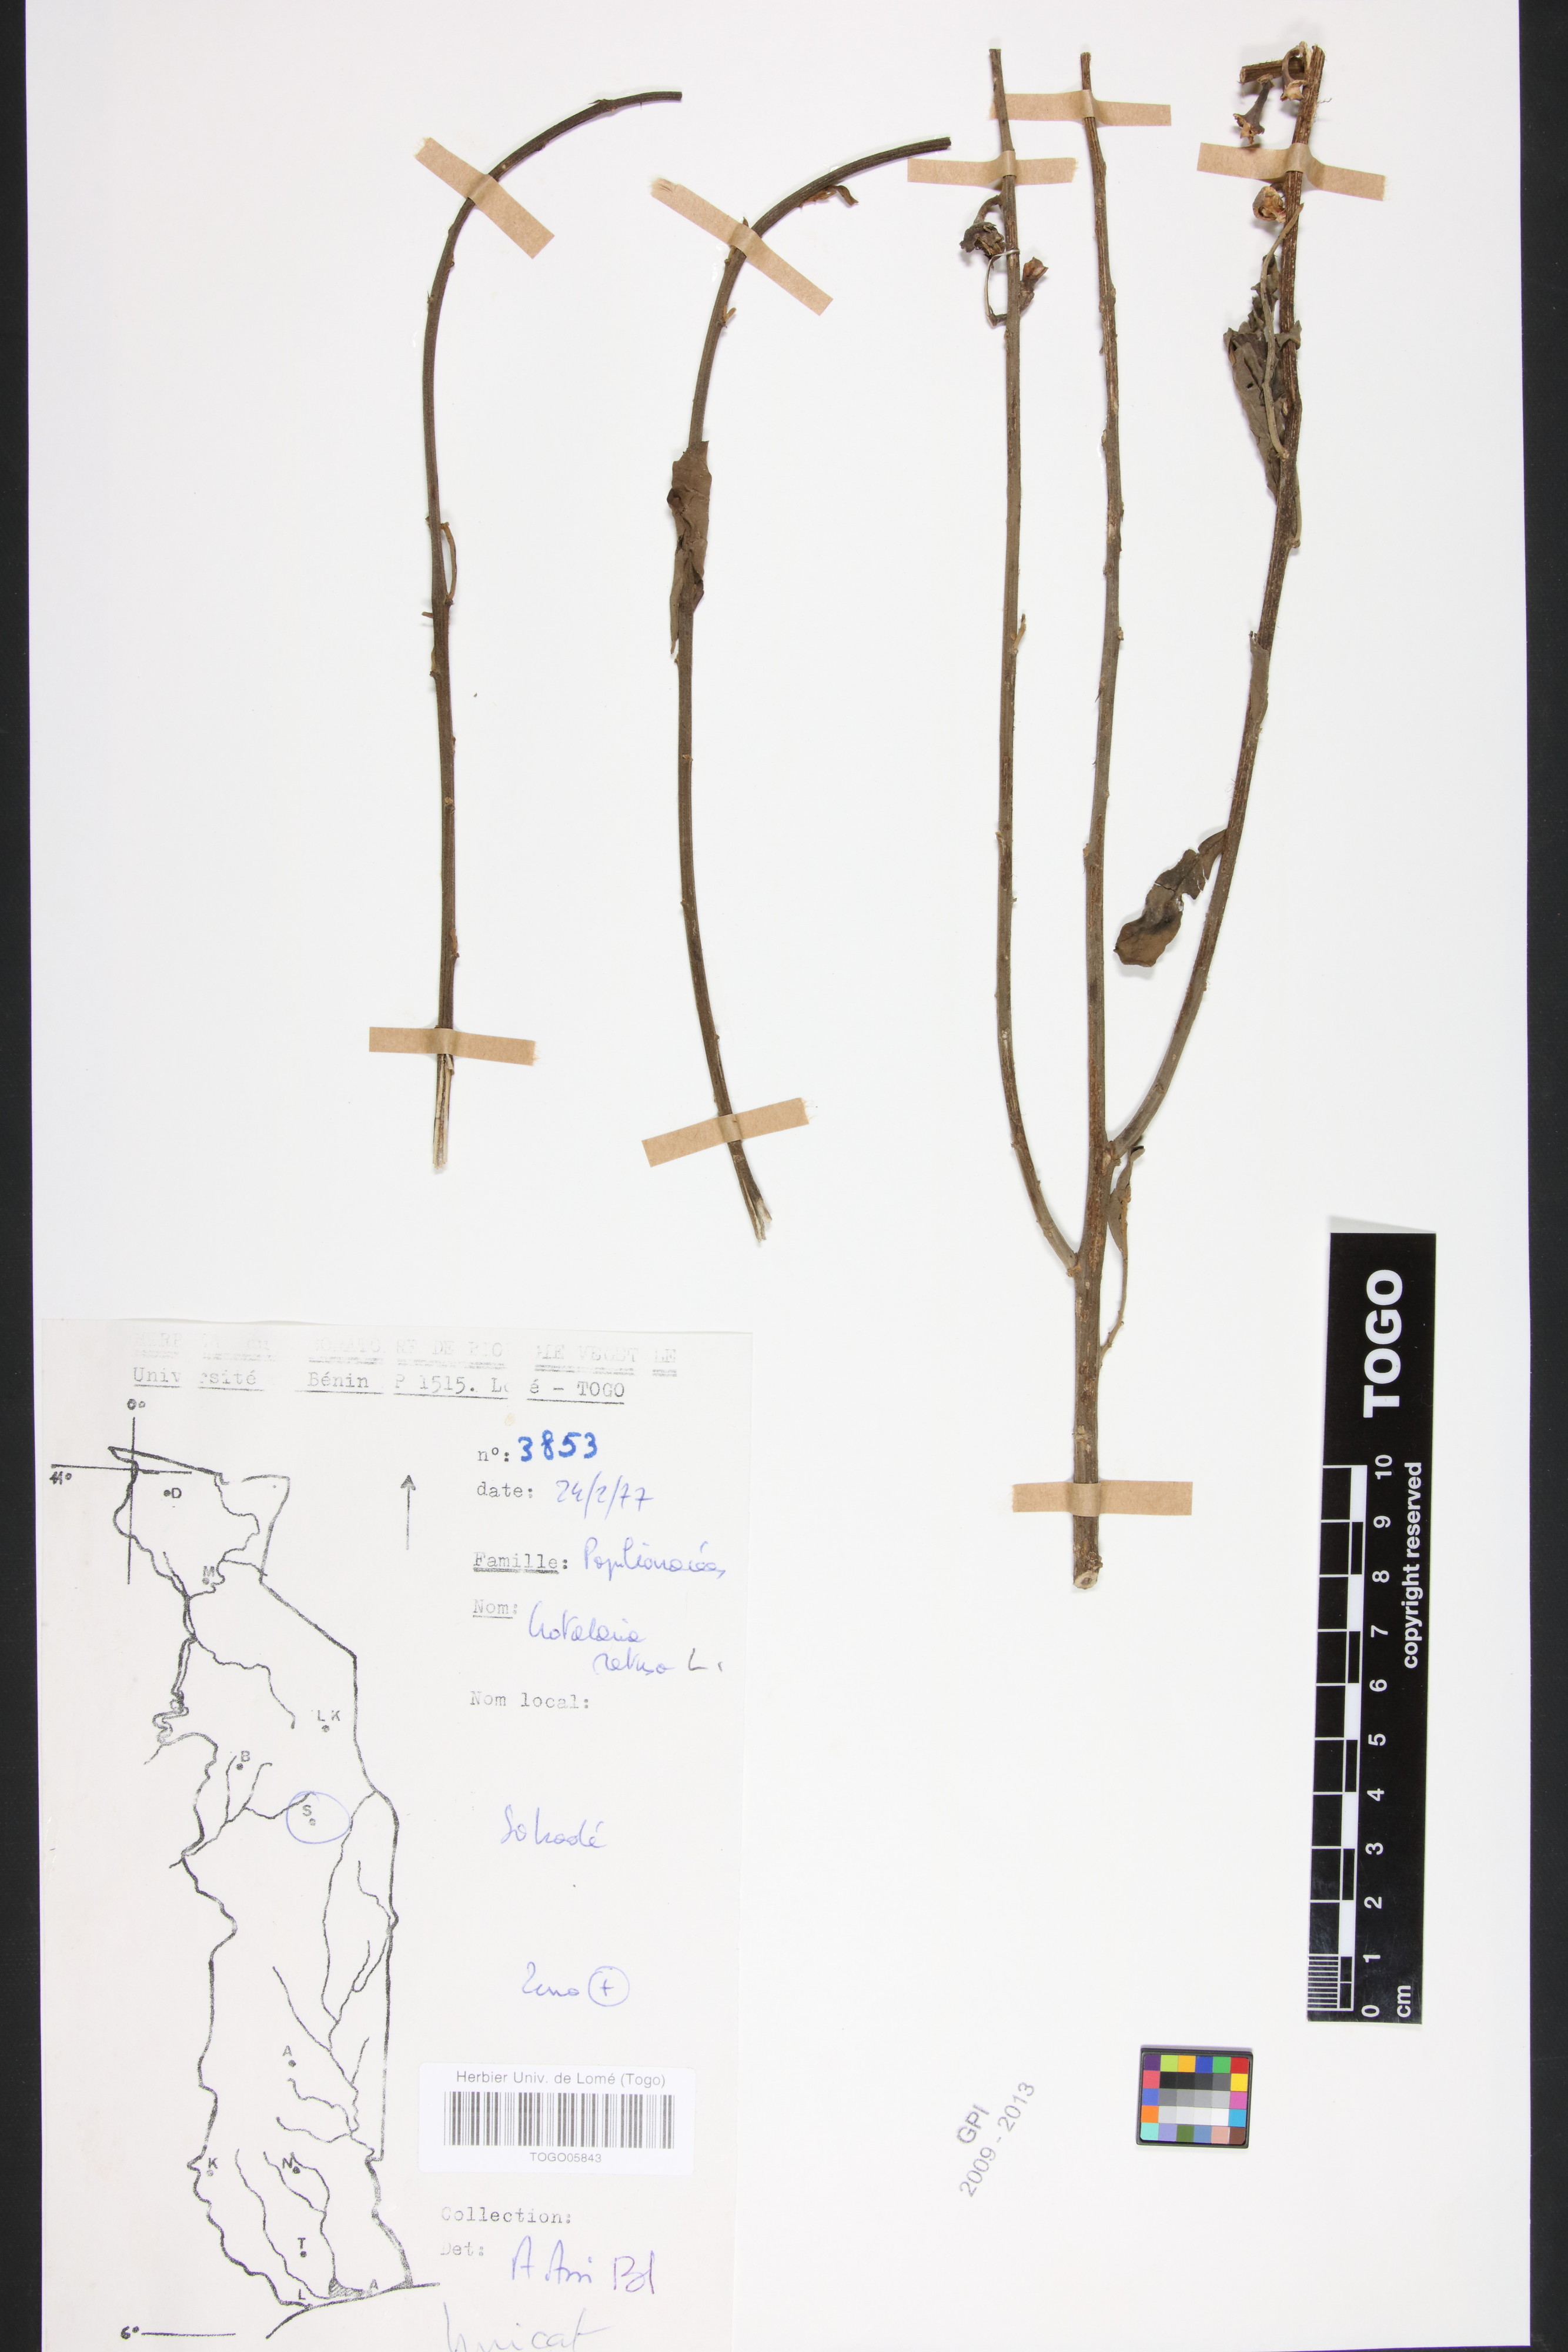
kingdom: Plantae
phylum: Tracheophyta
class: Magnoliopsida
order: Fabales
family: Fabaceae
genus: Crotalaria
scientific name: Crotalaria retusa
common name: Rattleweed
